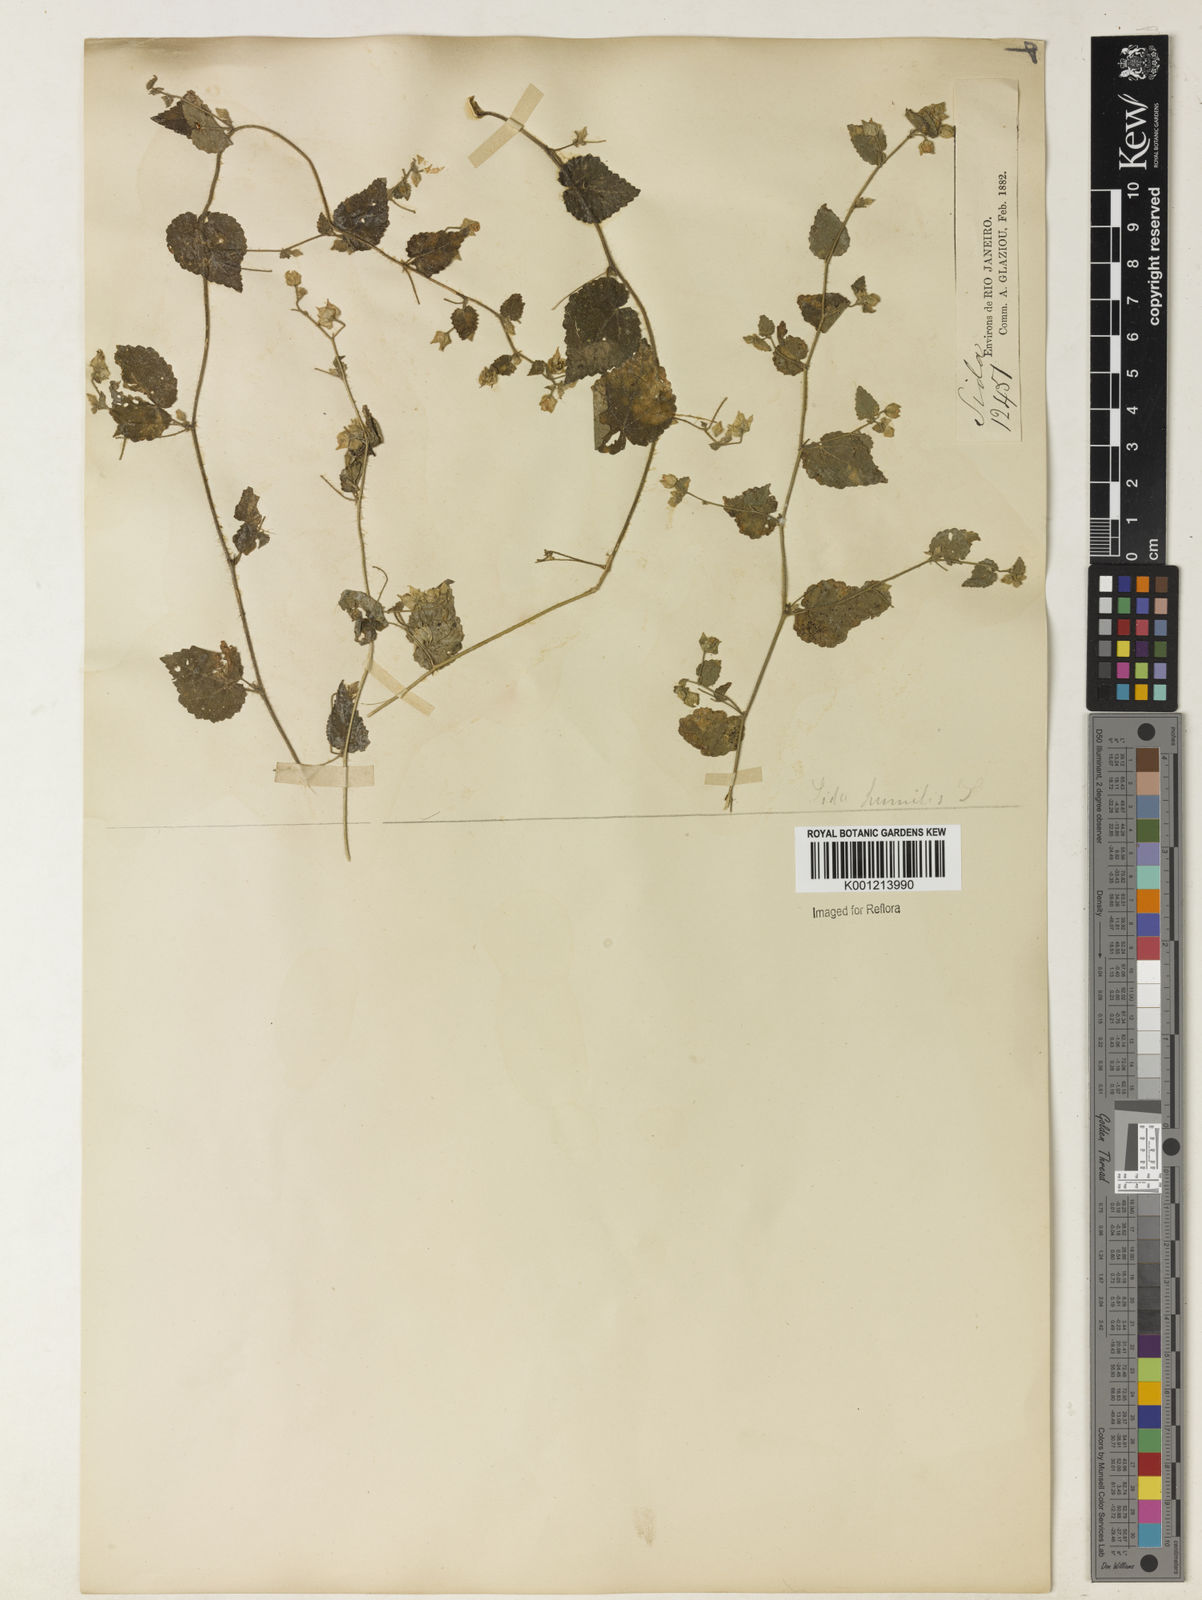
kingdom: Plantae
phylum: Tracheophyta
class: Magnoliopsida
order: Malvales
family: Malvaceae
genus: Sida
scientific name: Sida jussieana
